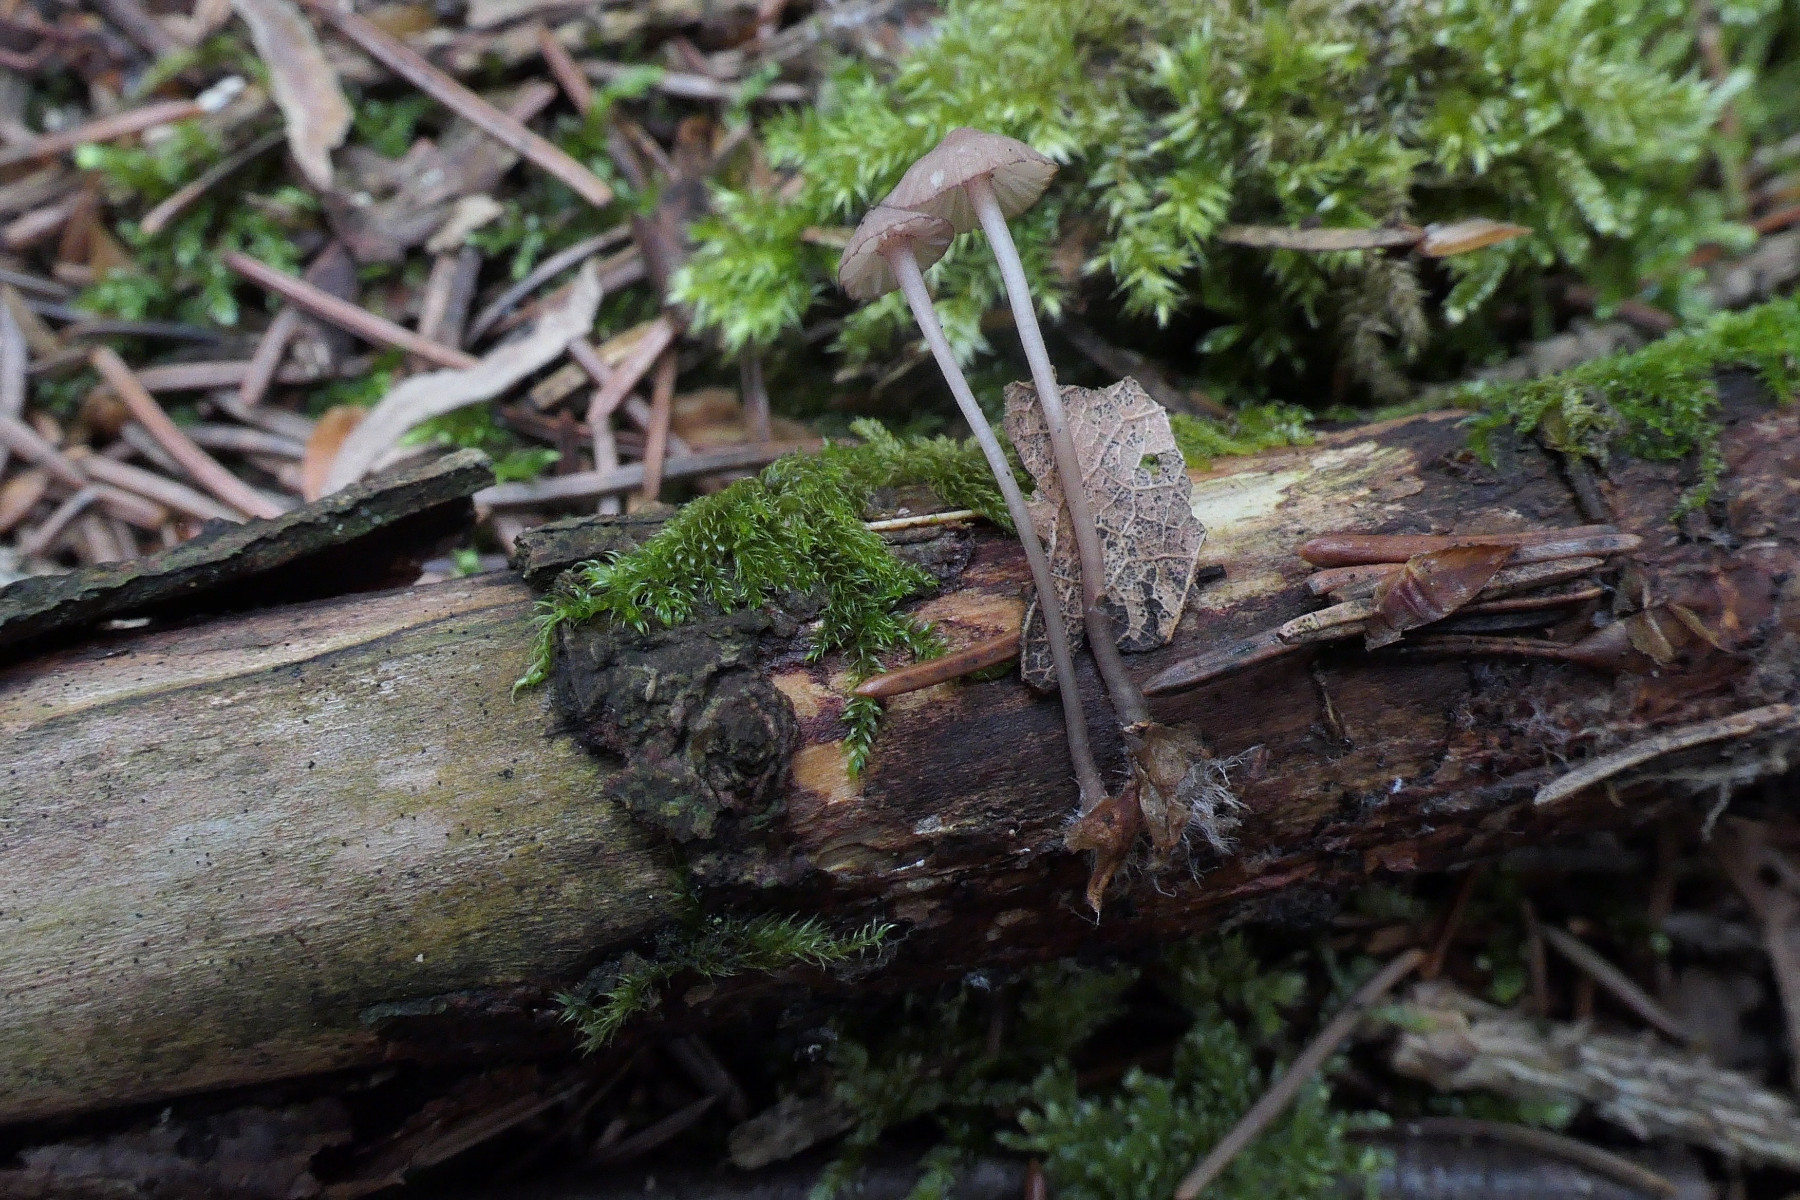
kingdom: Fungi
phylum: Basidiomycota
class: Agaricomycetes
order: Agaricales
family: Mycenaceae
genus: Mycena
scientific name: Mycena sanguinolenta
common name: rødmælket huesvamp
